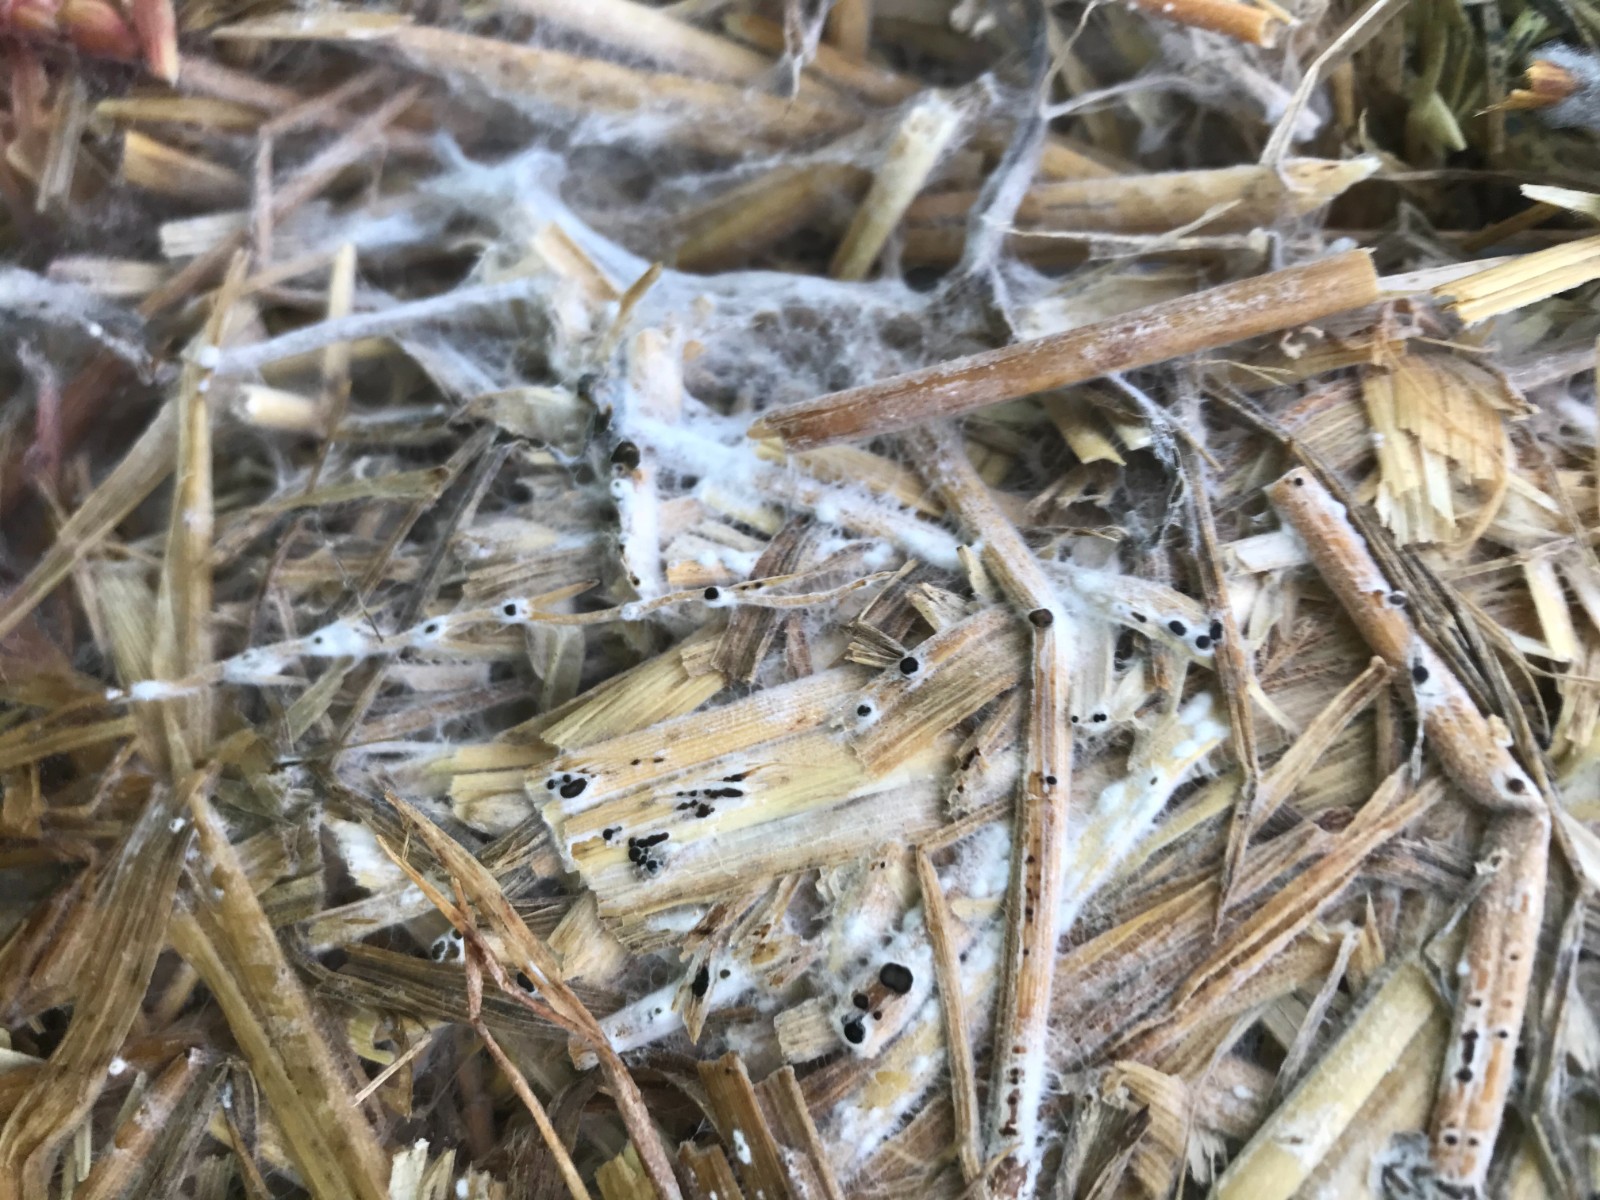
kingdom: Fungi
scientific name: Fungi
